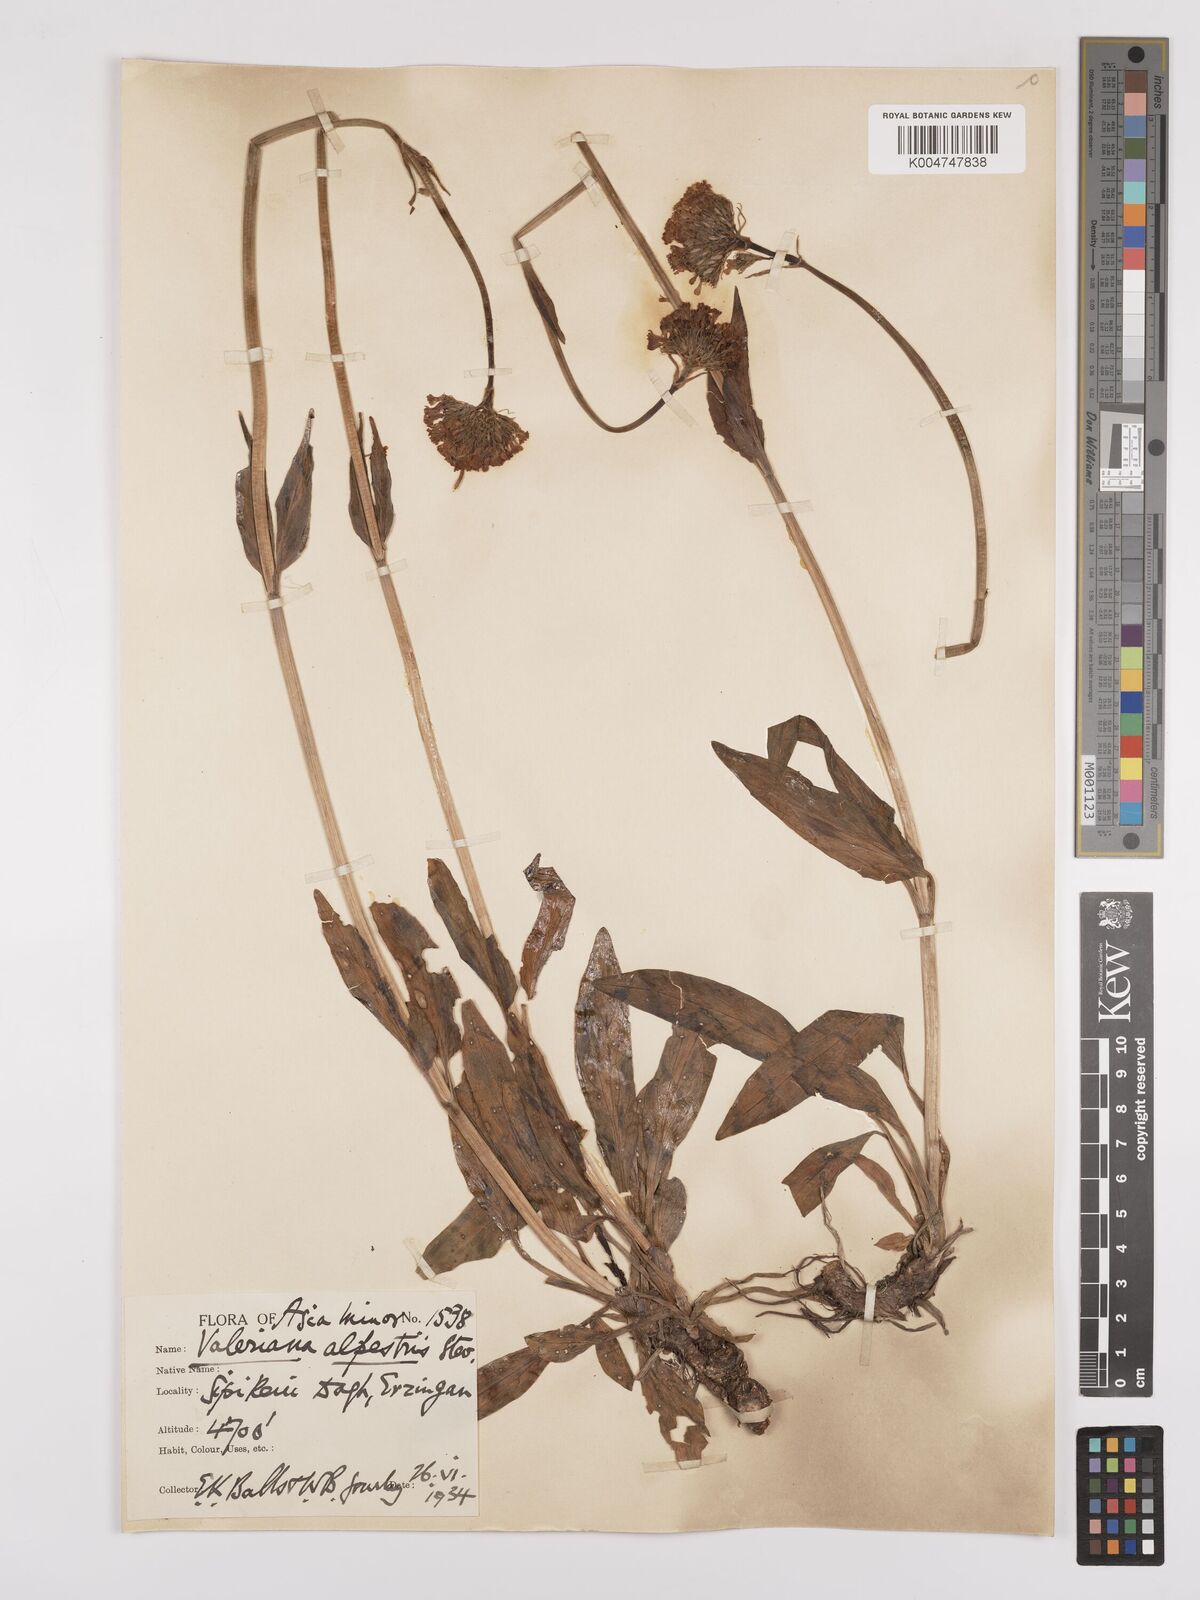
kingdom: Plantae
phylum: Tracheophyta
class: Magnoliopsida
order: Dipsacales
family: Caprifoliaceae
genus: Valeriana
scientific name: Valeriana alpestris
